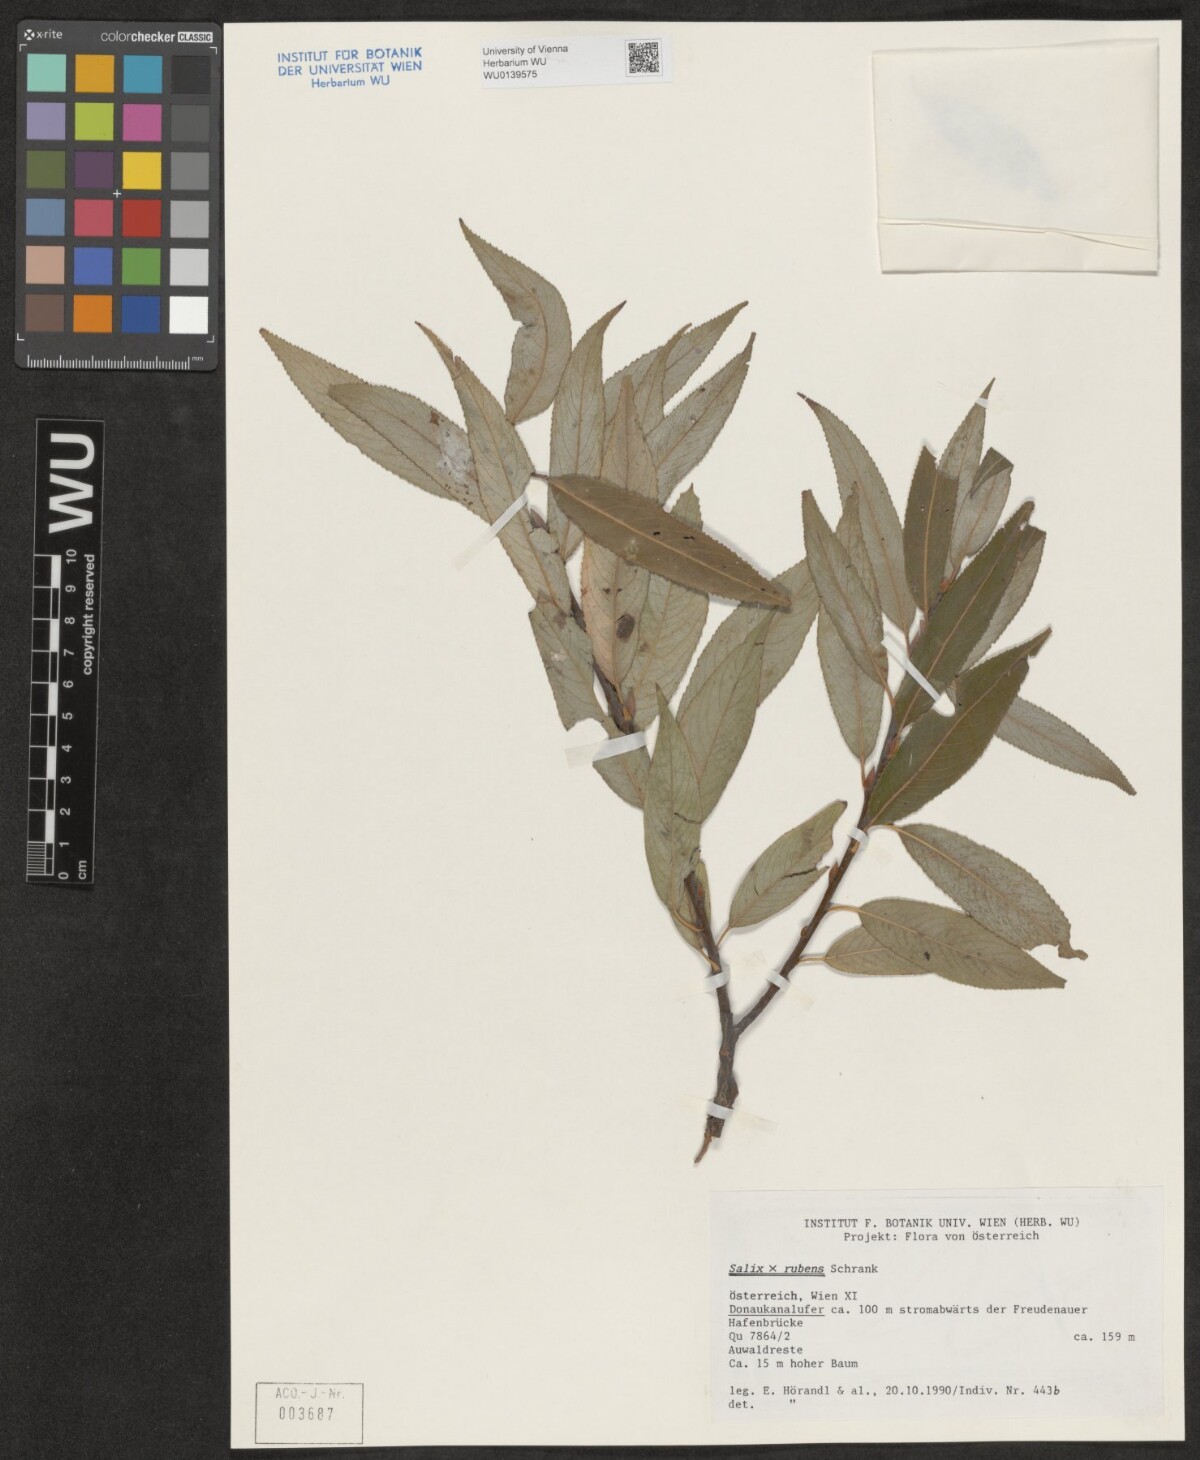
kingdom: Plantae
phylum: Tracheophyta
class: Magnoliopsida
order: Malpighiales
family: Salicaceae
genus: Salix
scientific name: Salix rubens
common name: Hybrid crack willow
